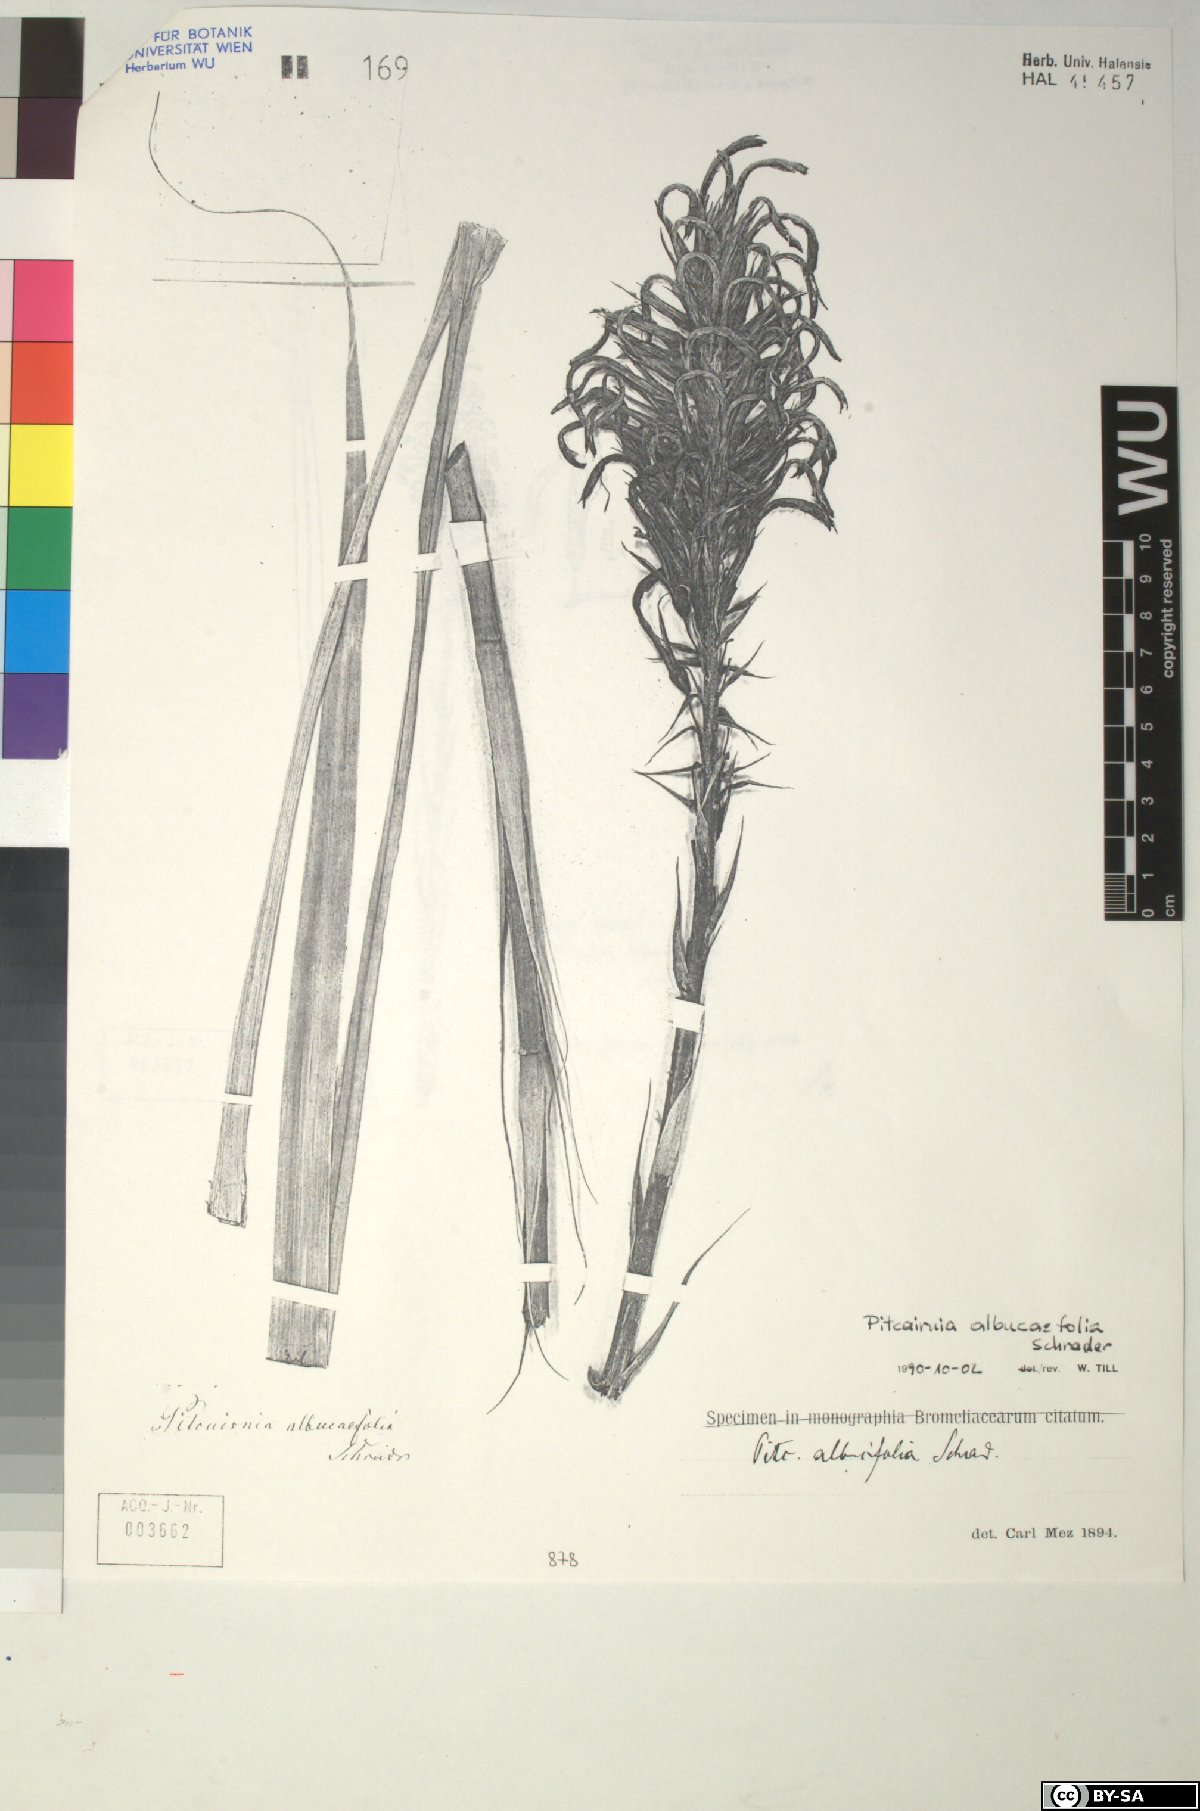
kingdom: Plantae
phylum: Tracheophyta
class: Liliopsida
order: Poales
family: Bromeliaceae
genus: Pitcairnia
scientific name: Pitcairnia spicata
